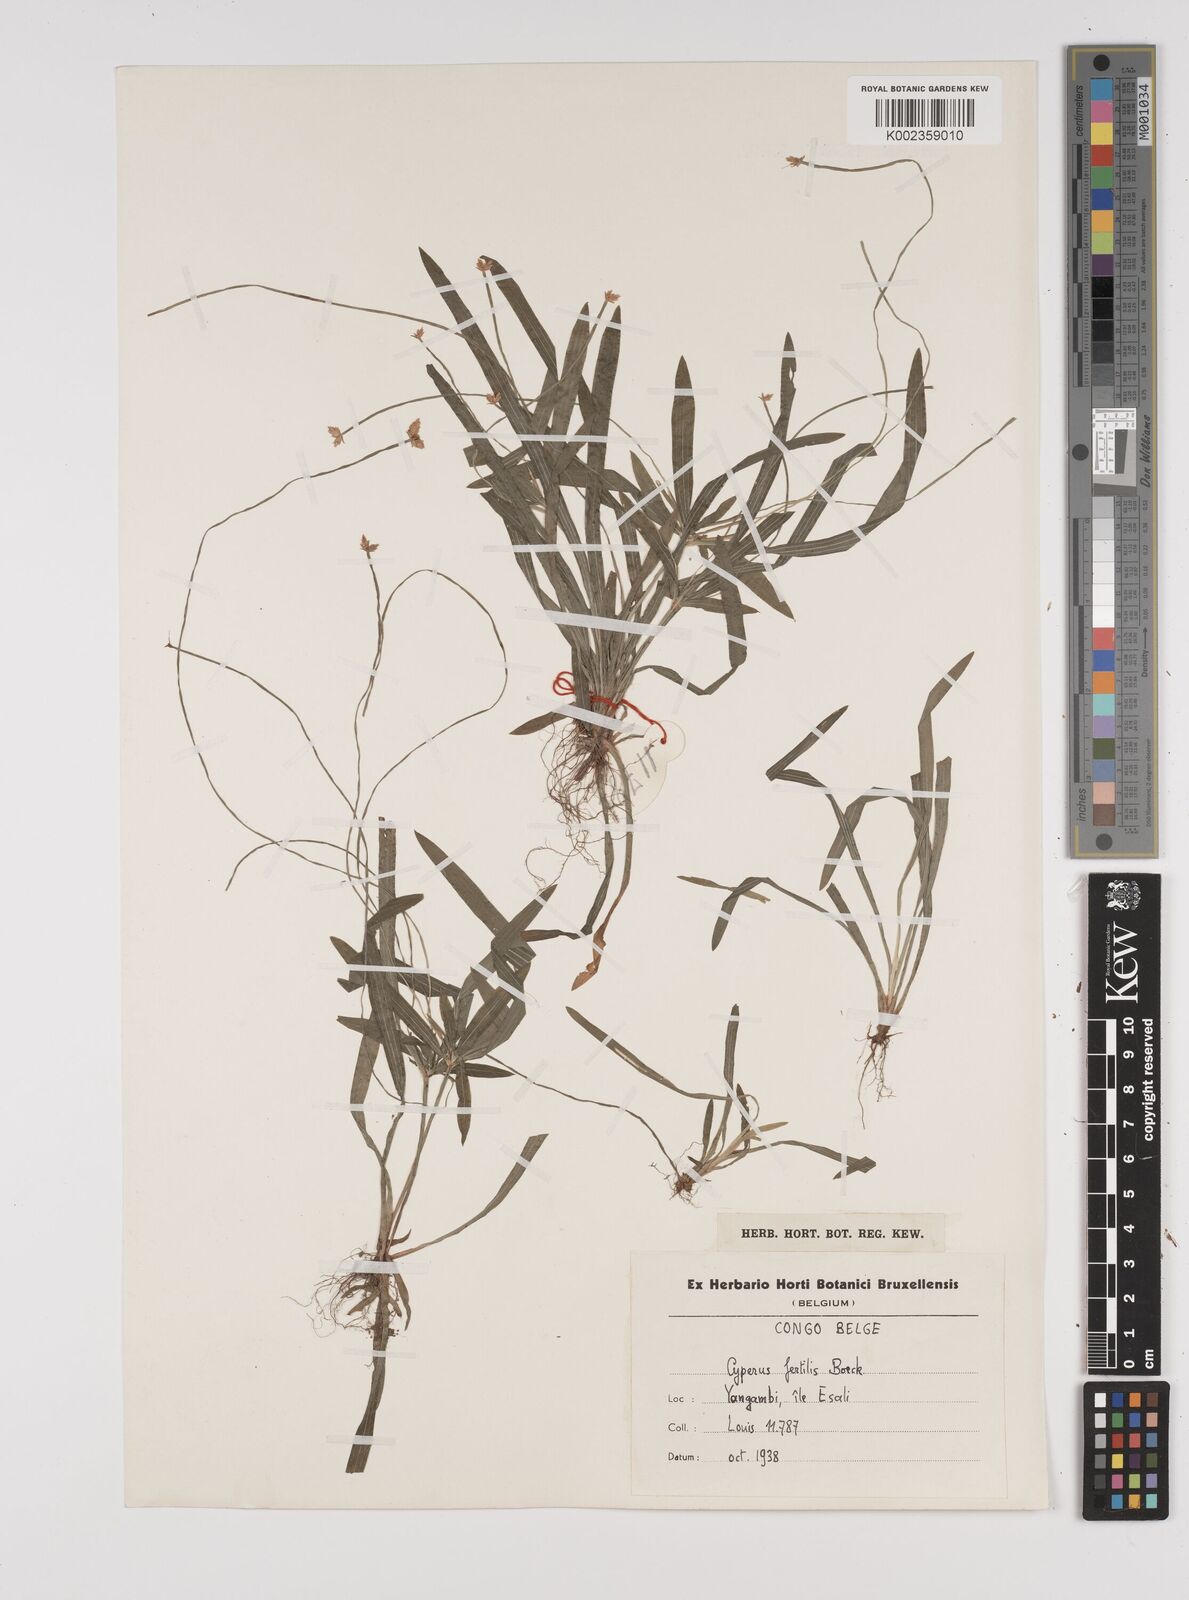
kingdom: Plantae
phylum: Tracheophyta
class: Liliopsida
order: Poales
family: Cyperaceae
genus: Cyperus
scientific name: Cyperus fertilis
